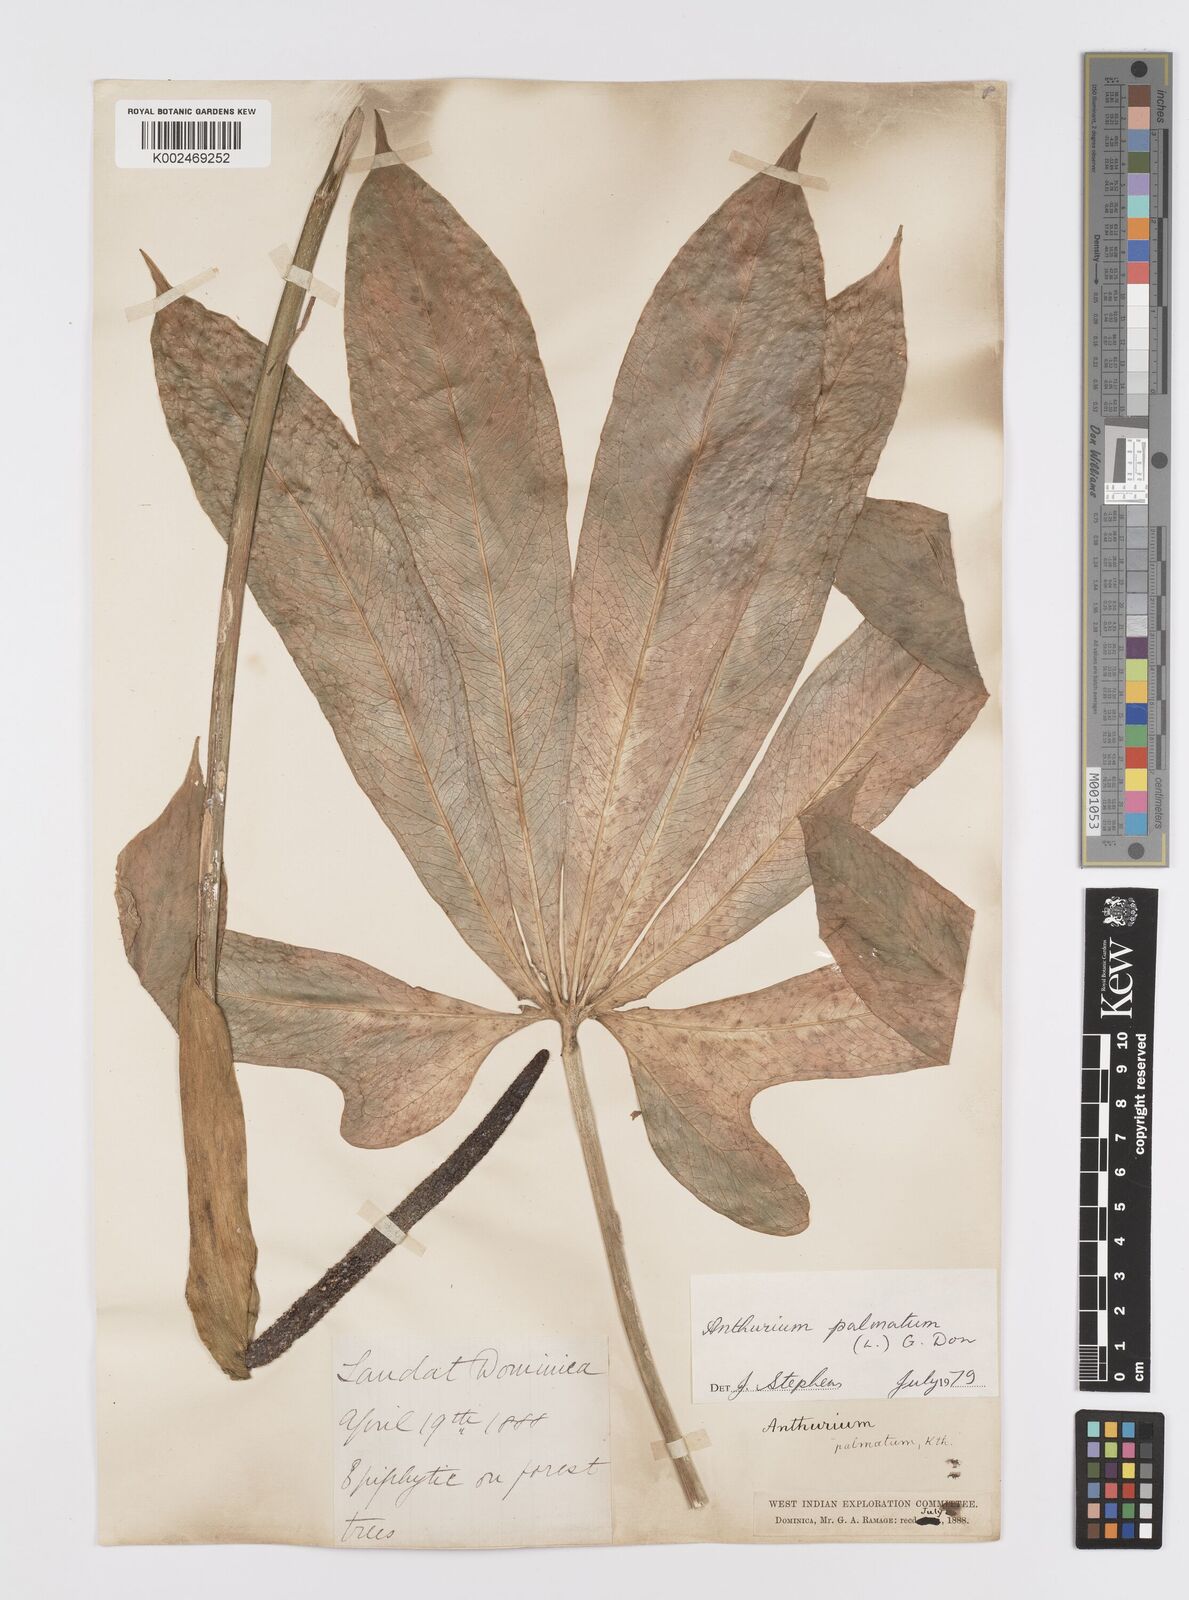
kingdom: Plantae
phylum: Tracheophyta
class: Liliopsida
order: Alismatales
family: Araceae
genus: Anthurium
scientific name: Anthurium palmatum
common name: Mibi
